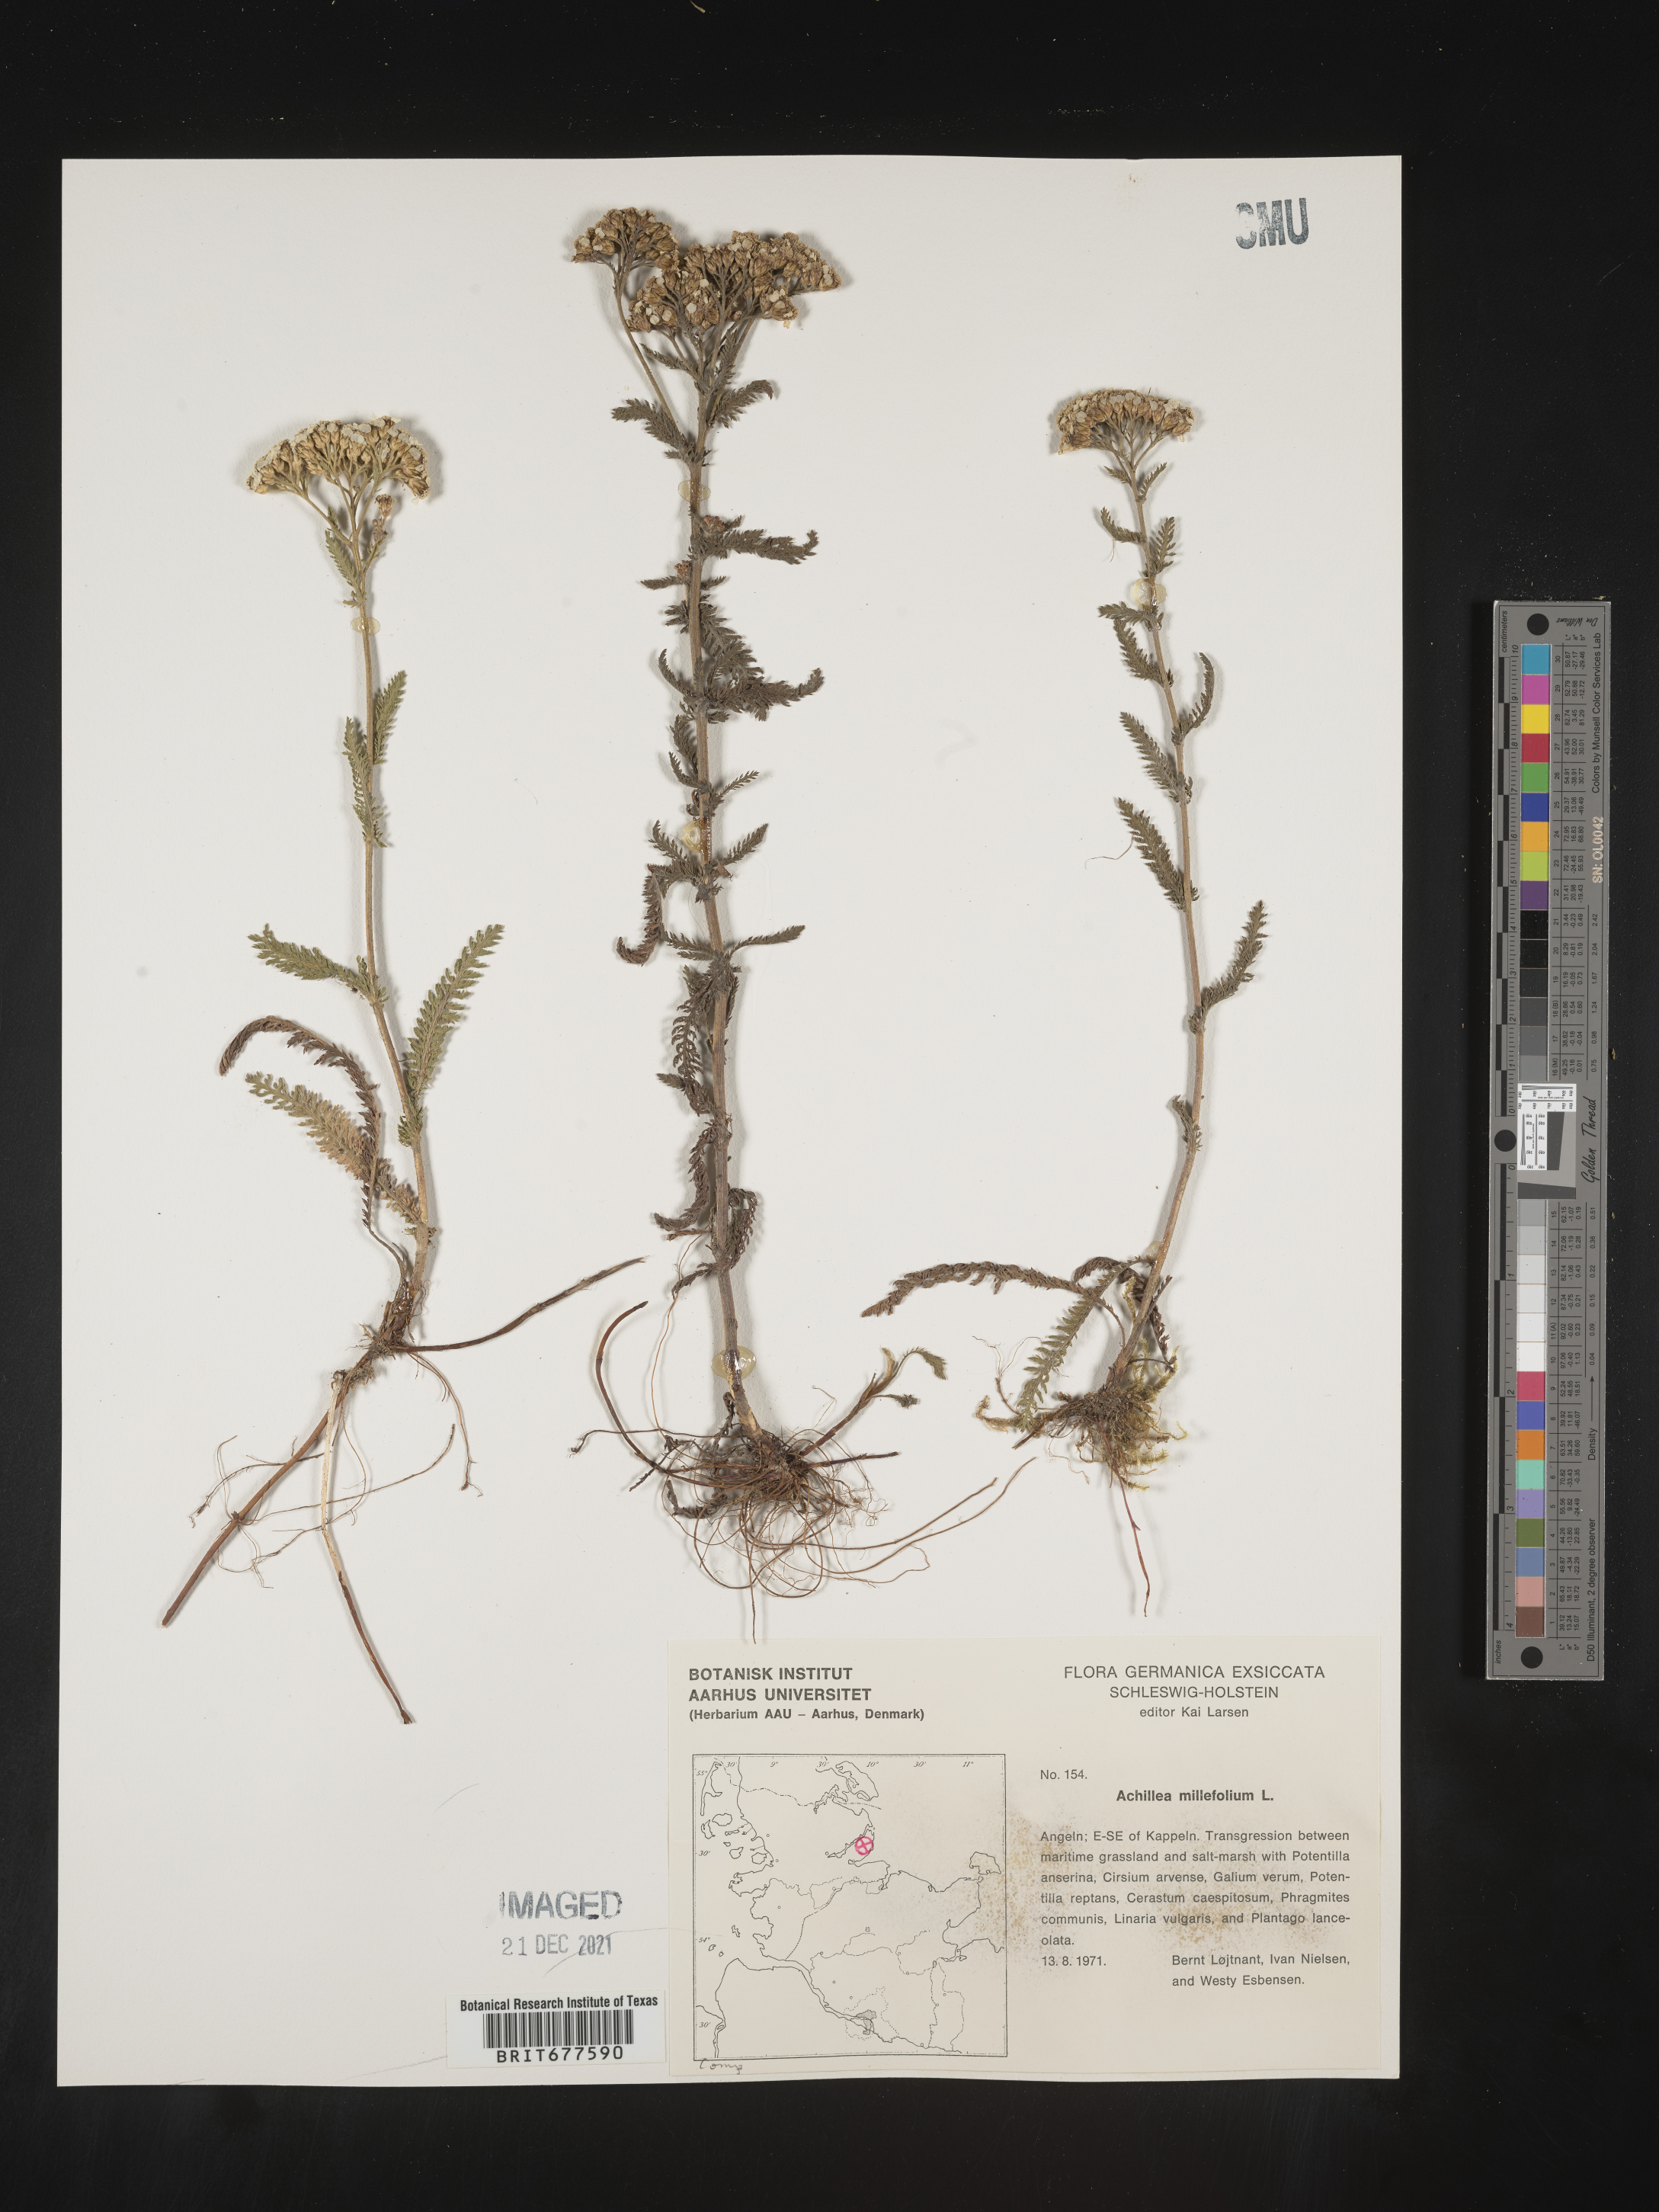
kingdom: Plantae
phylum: Tracheophyta
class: Magnoliopsida
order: Asterales
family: Asteraceae
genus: Achillea
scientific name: Achillea millefolium
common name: Yarrow
